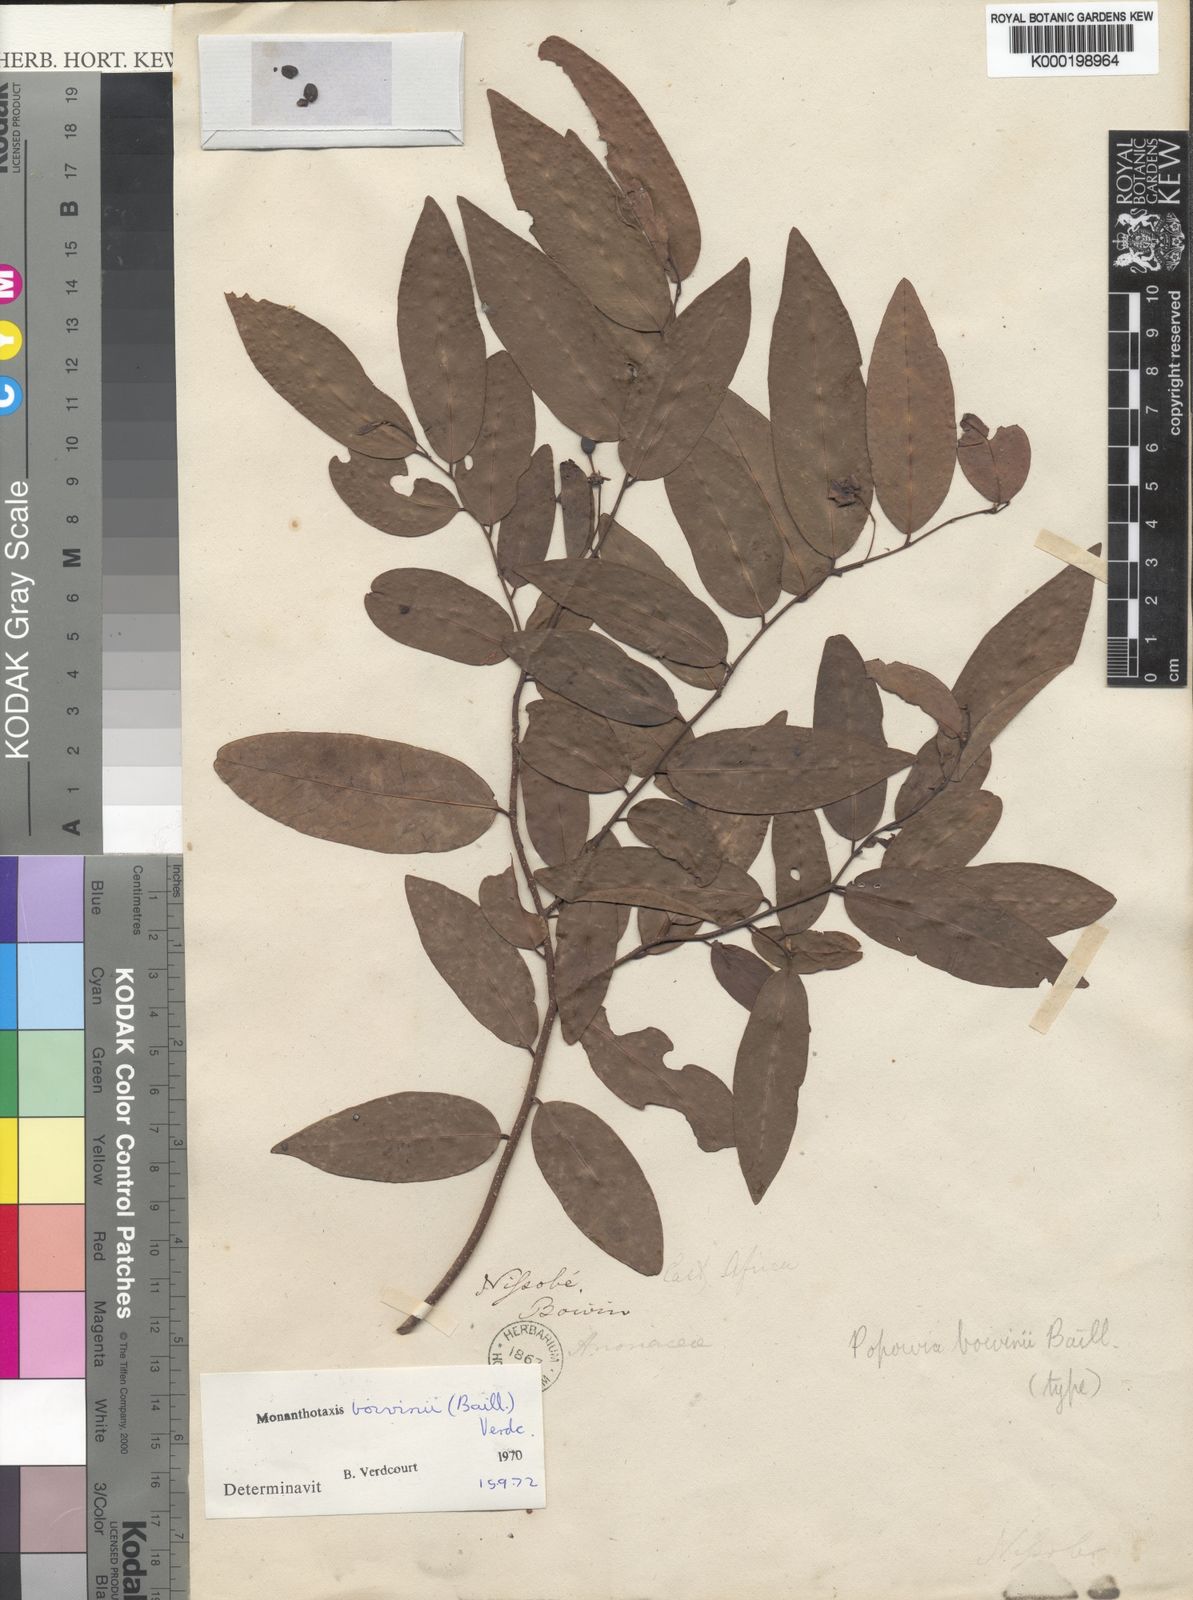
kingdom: Plantae
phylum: Tracheophyta
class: Magnoliopsida
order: Magnoliales
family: Annonaceae
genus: Monanthotaxis
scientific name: Monanthotaxis boivinii
